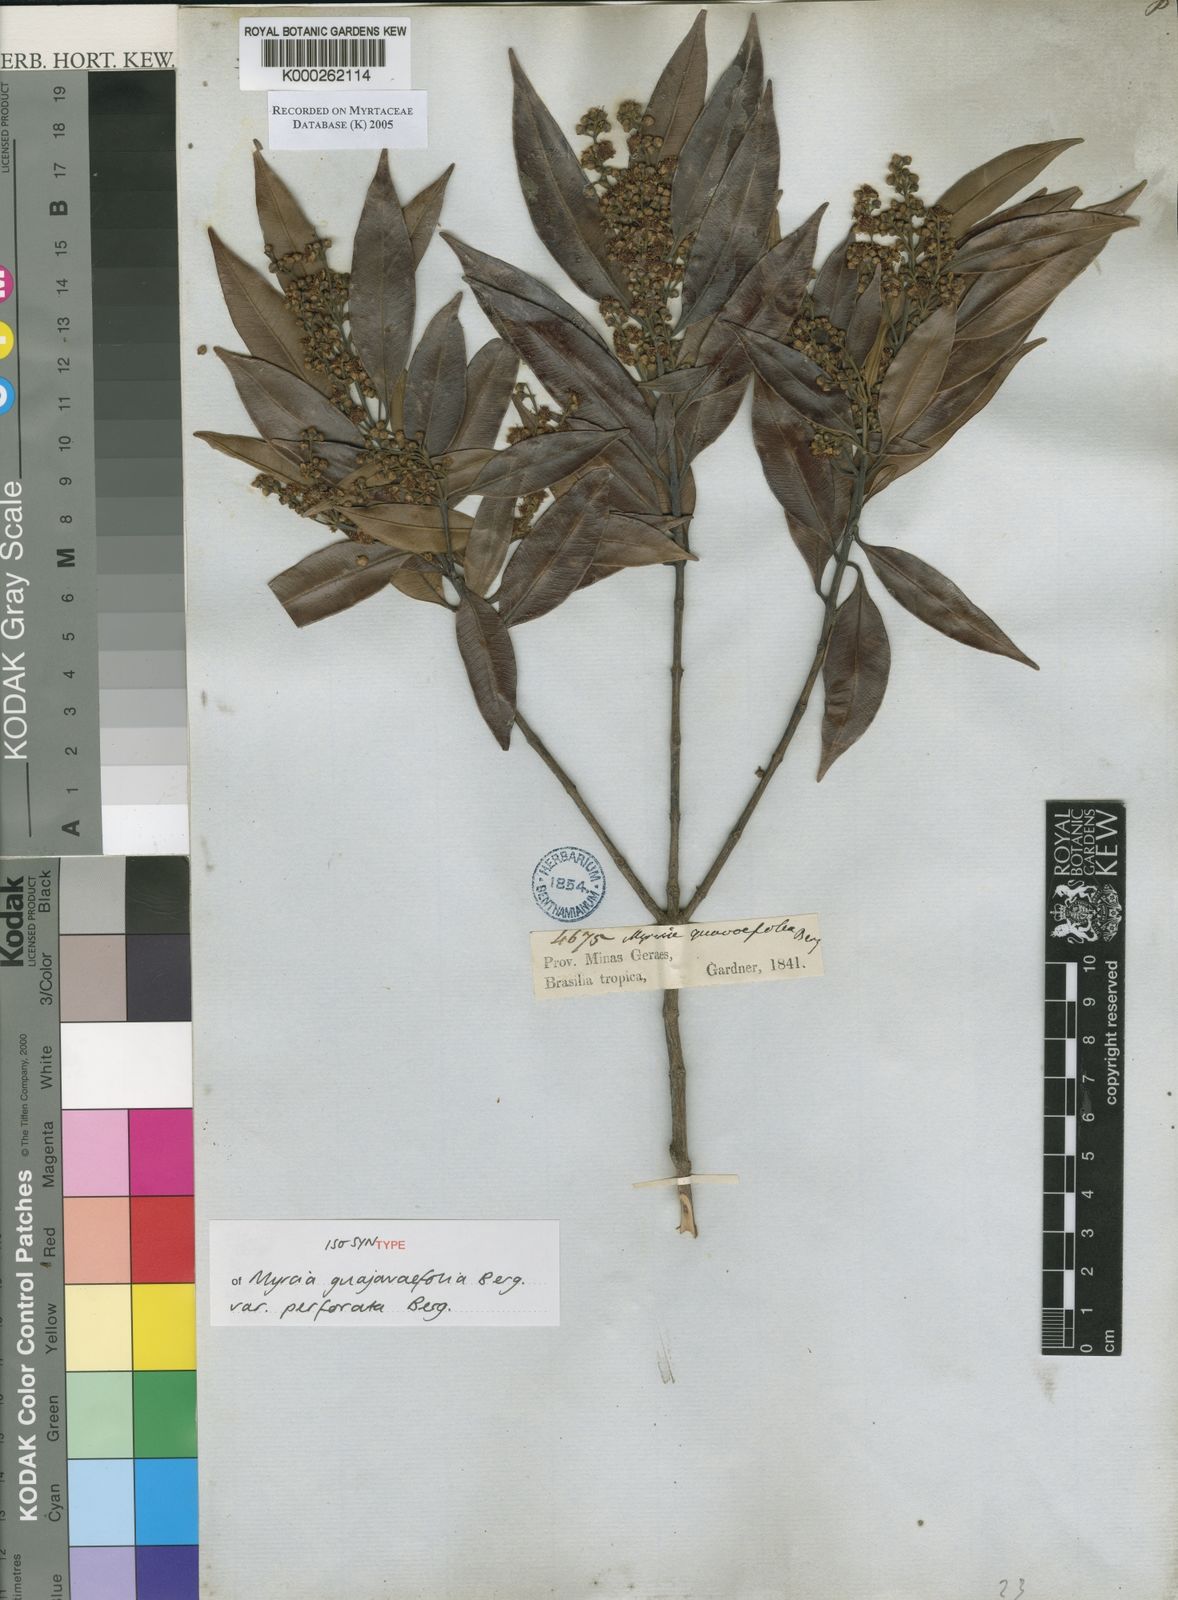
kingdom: Plantae
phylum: Tracheophyta
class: Magnoliopsida
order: Myrtales
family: Myrtaceae
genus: Myrcia
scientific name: Myrcia splendens
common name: Surinam cherry
